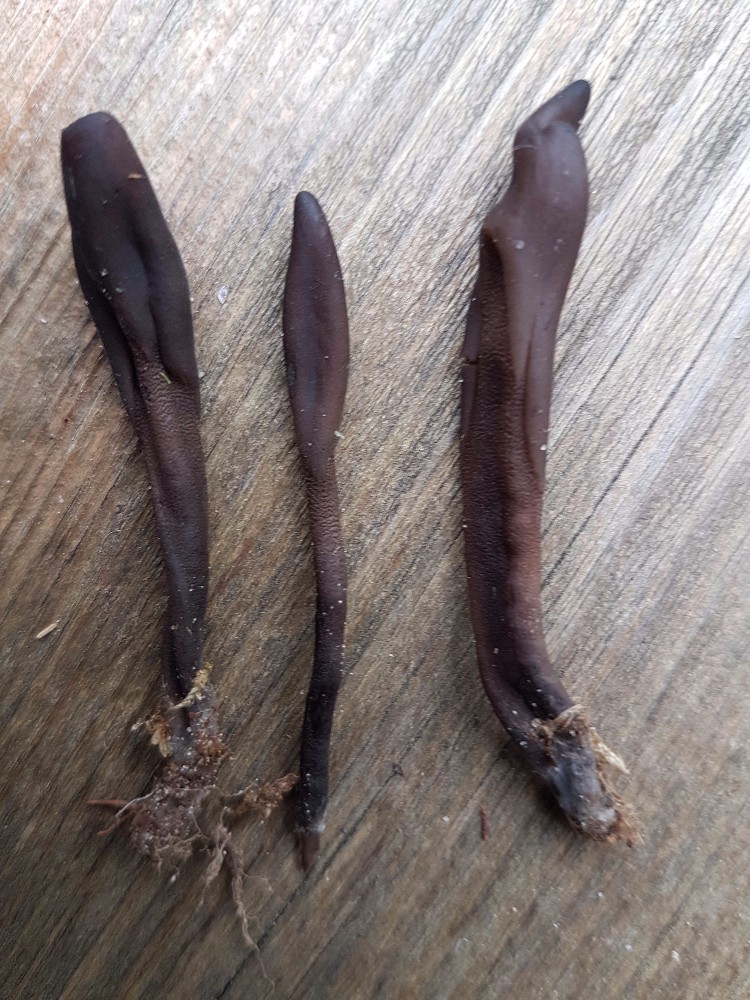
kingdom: Fungi
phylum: Ascomycota
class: Geoglossomycetes
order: Geoglossales
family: Geoglossaceae
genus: Geoglossum
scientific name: Geoglossum
